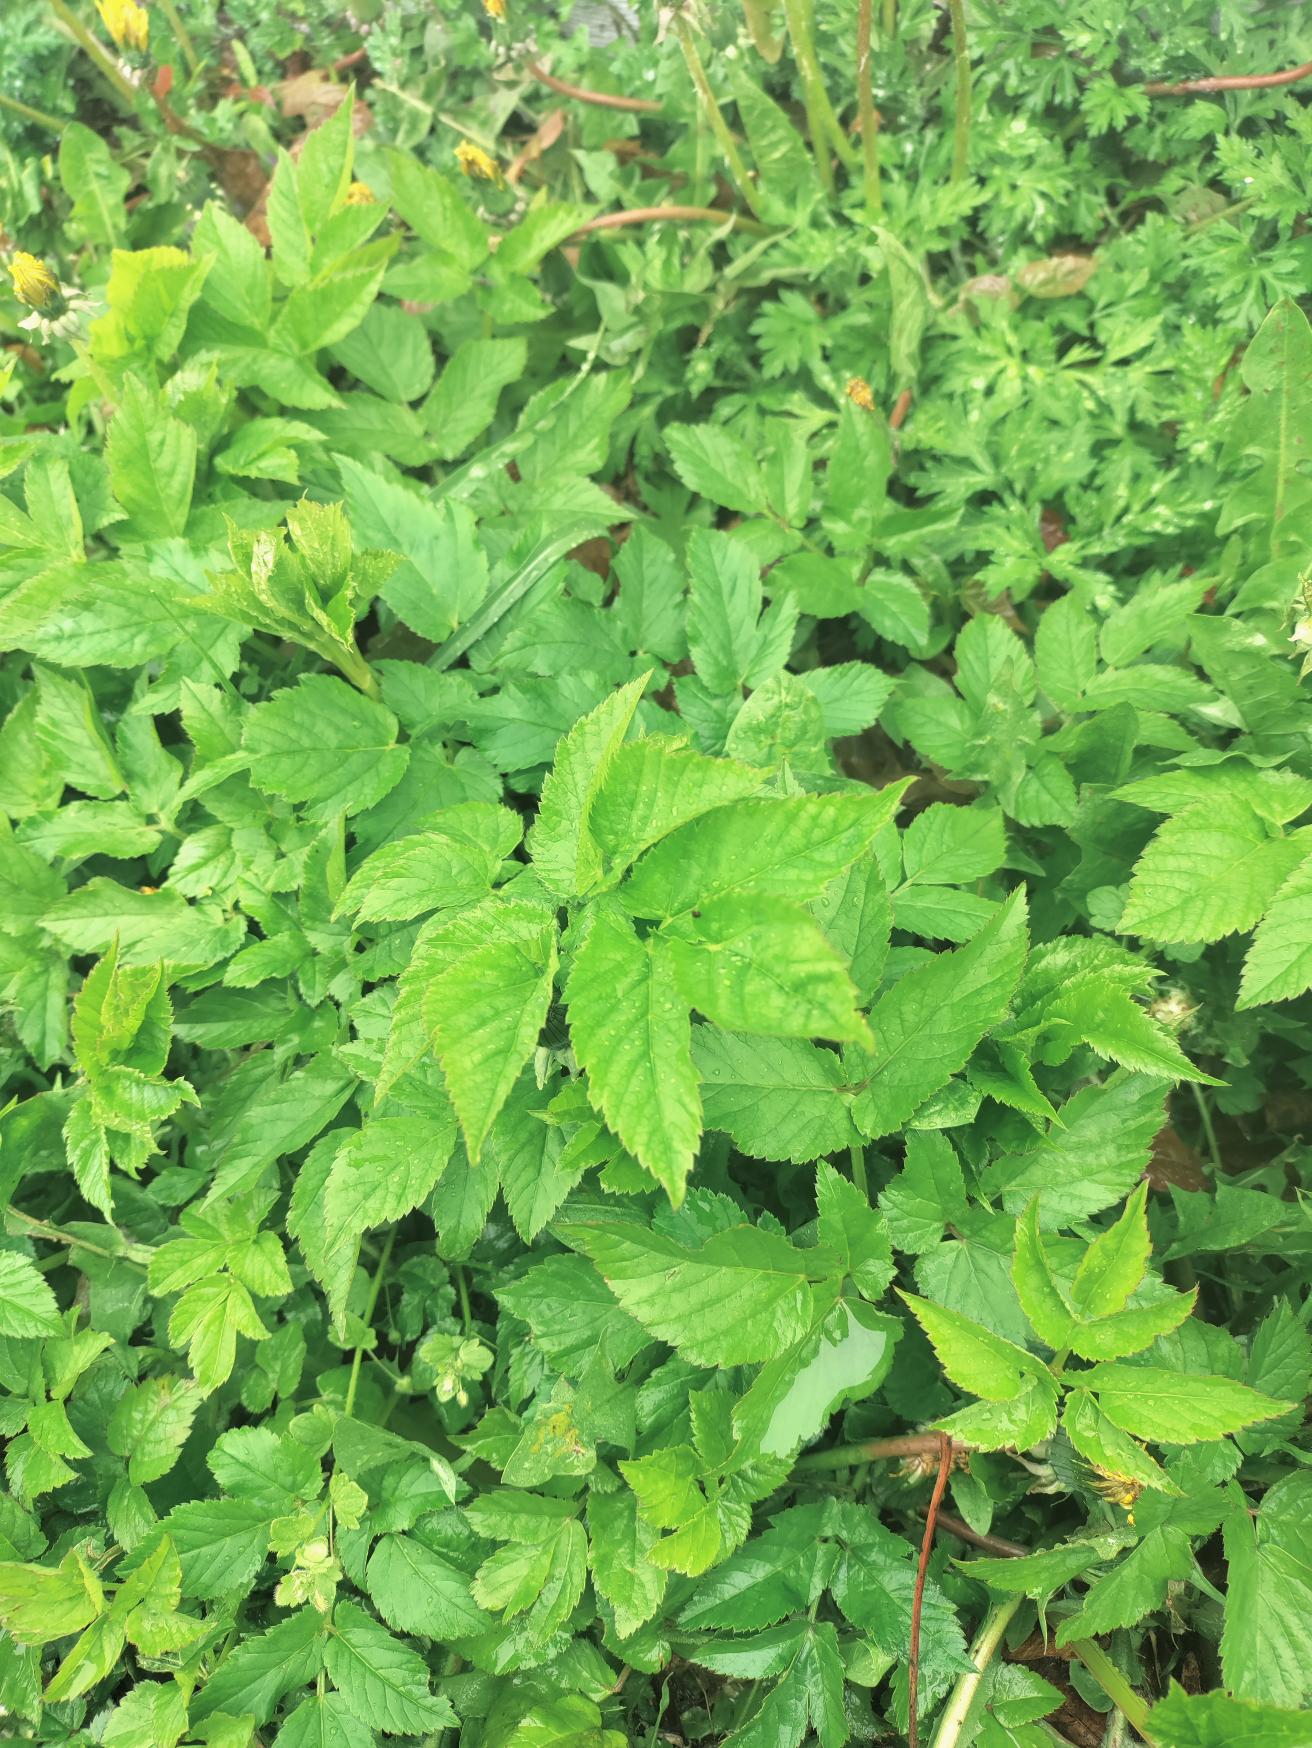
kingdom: Plantae
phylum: Tracheophyta
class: Magnoliopsida
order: Apiales
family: Apiaceae
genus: Aegopodium
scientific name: Aegopodium podagraria
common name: Skvalderkål
